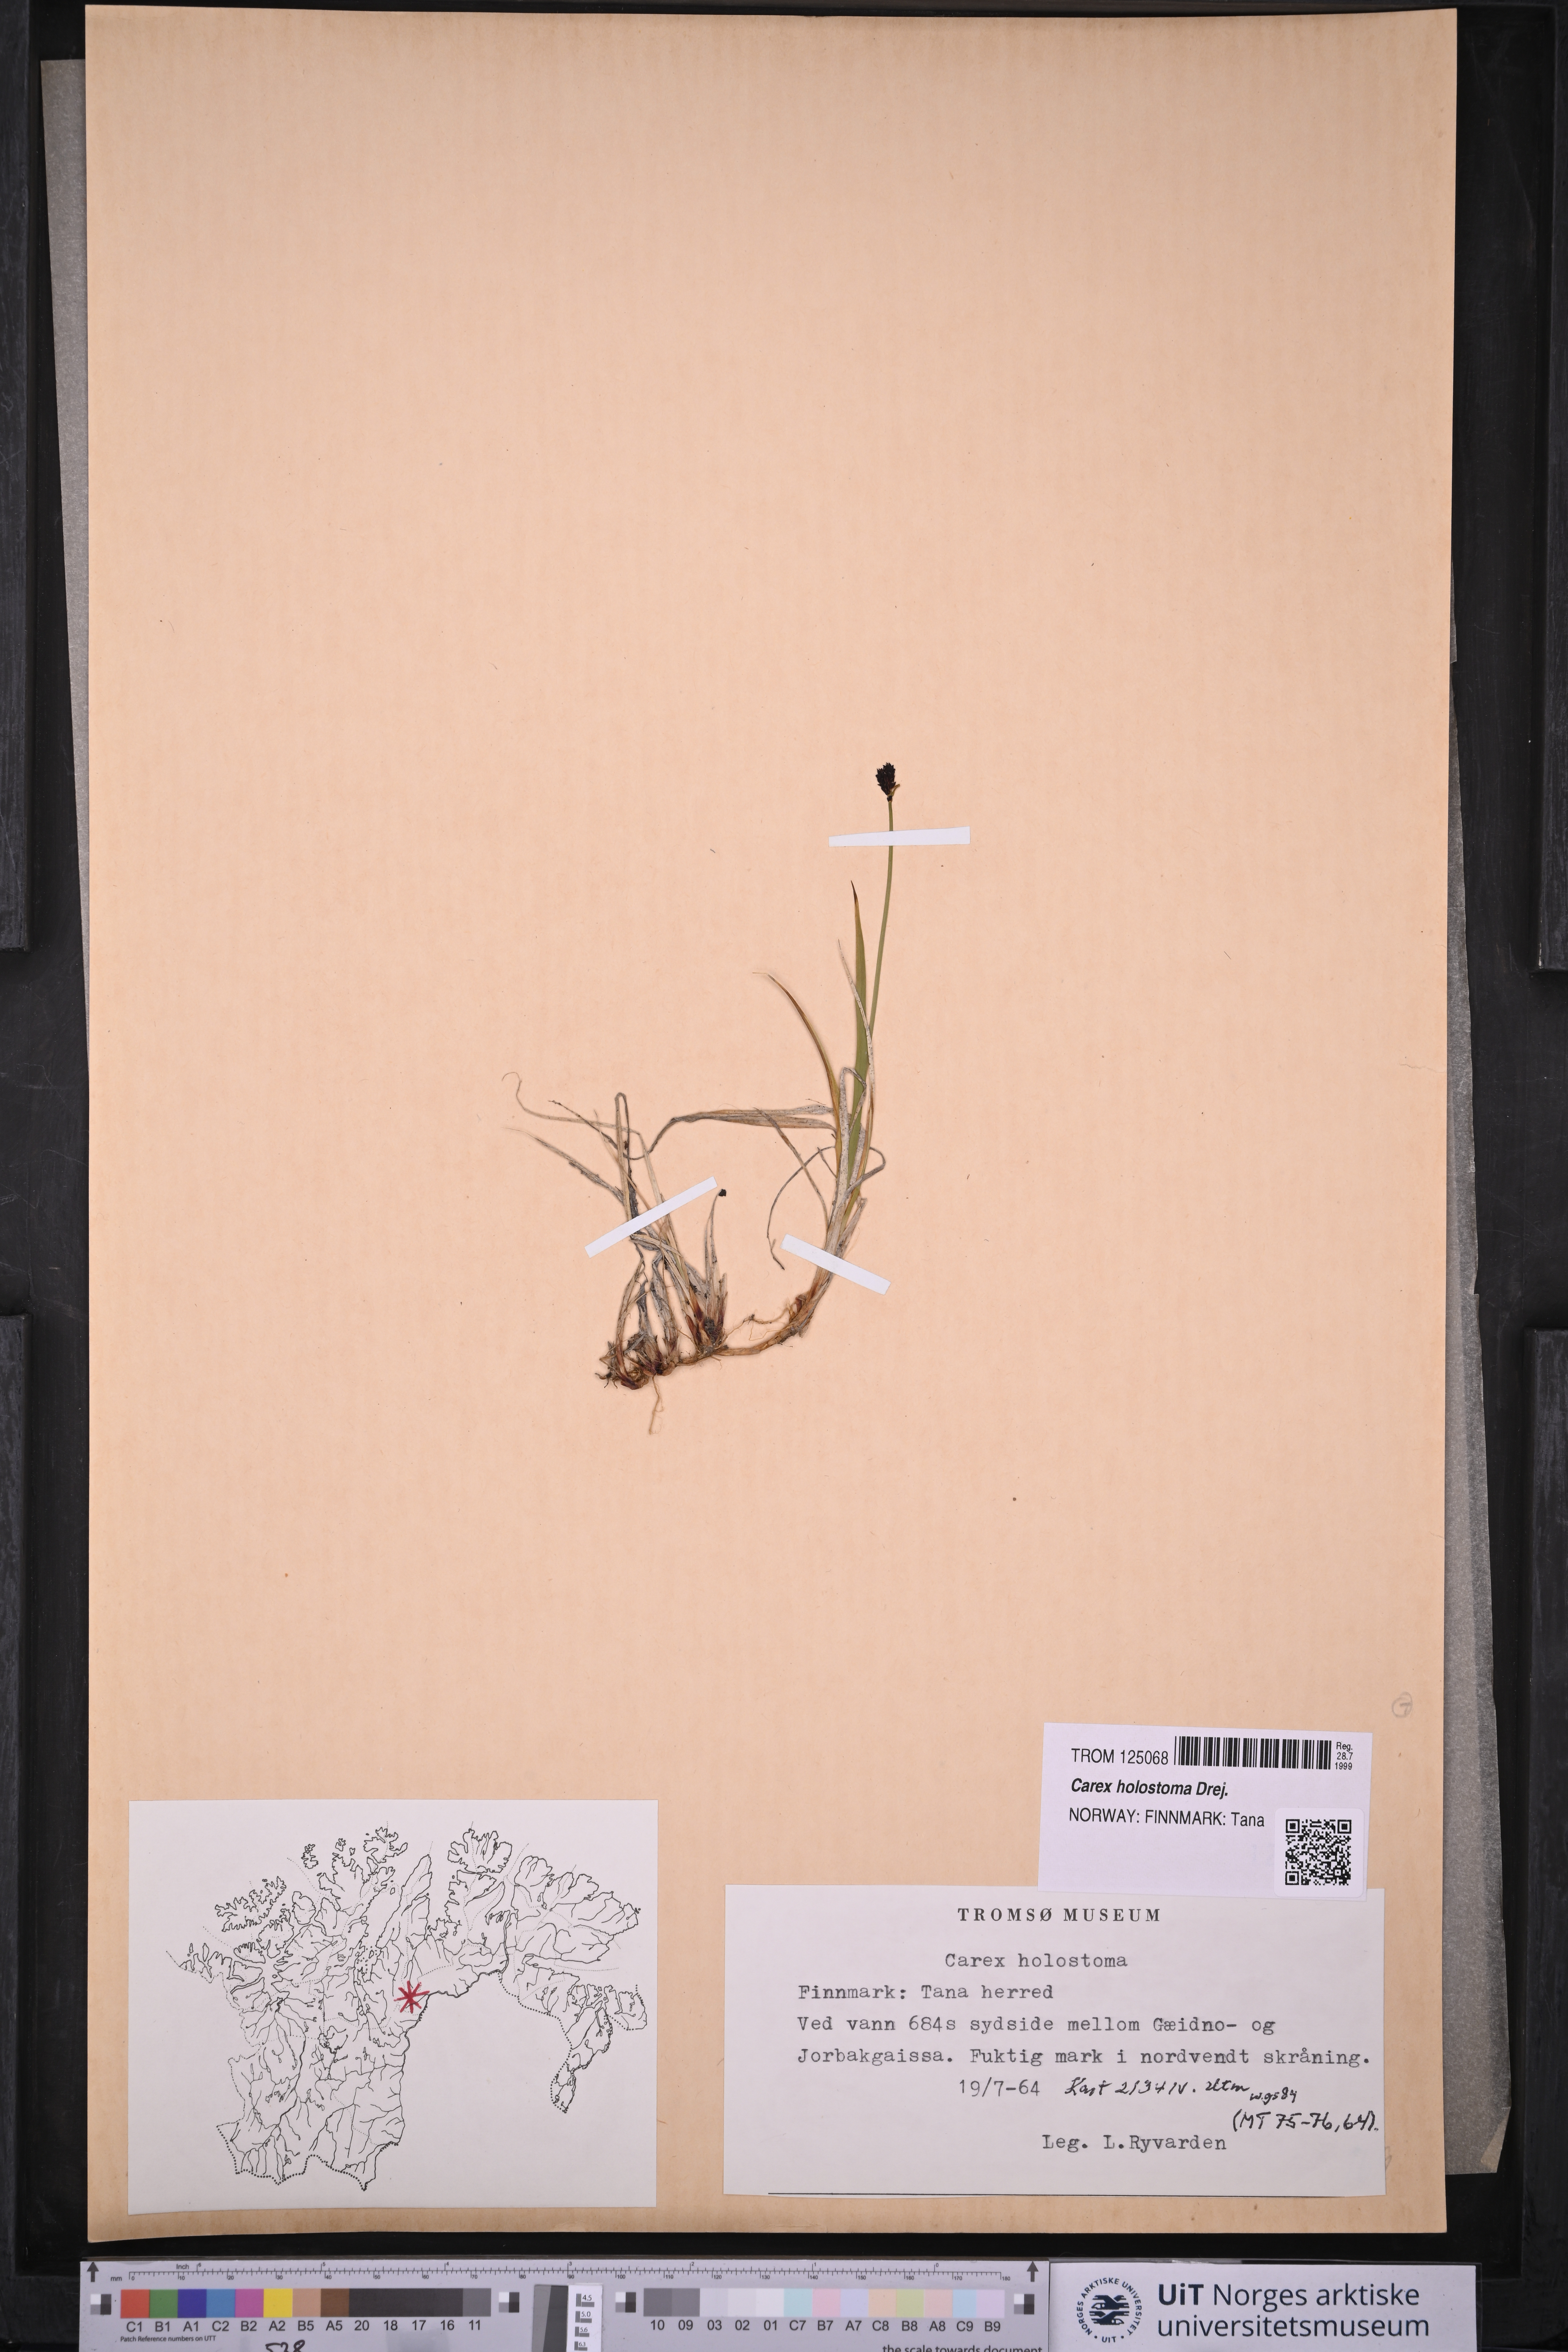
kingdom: Plantae
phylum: Tracheophyta
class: Liliopsida
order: Poales
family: Cyperaceae
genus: Carex
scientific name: Carex holostoma
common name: Arctic marsh sedge
